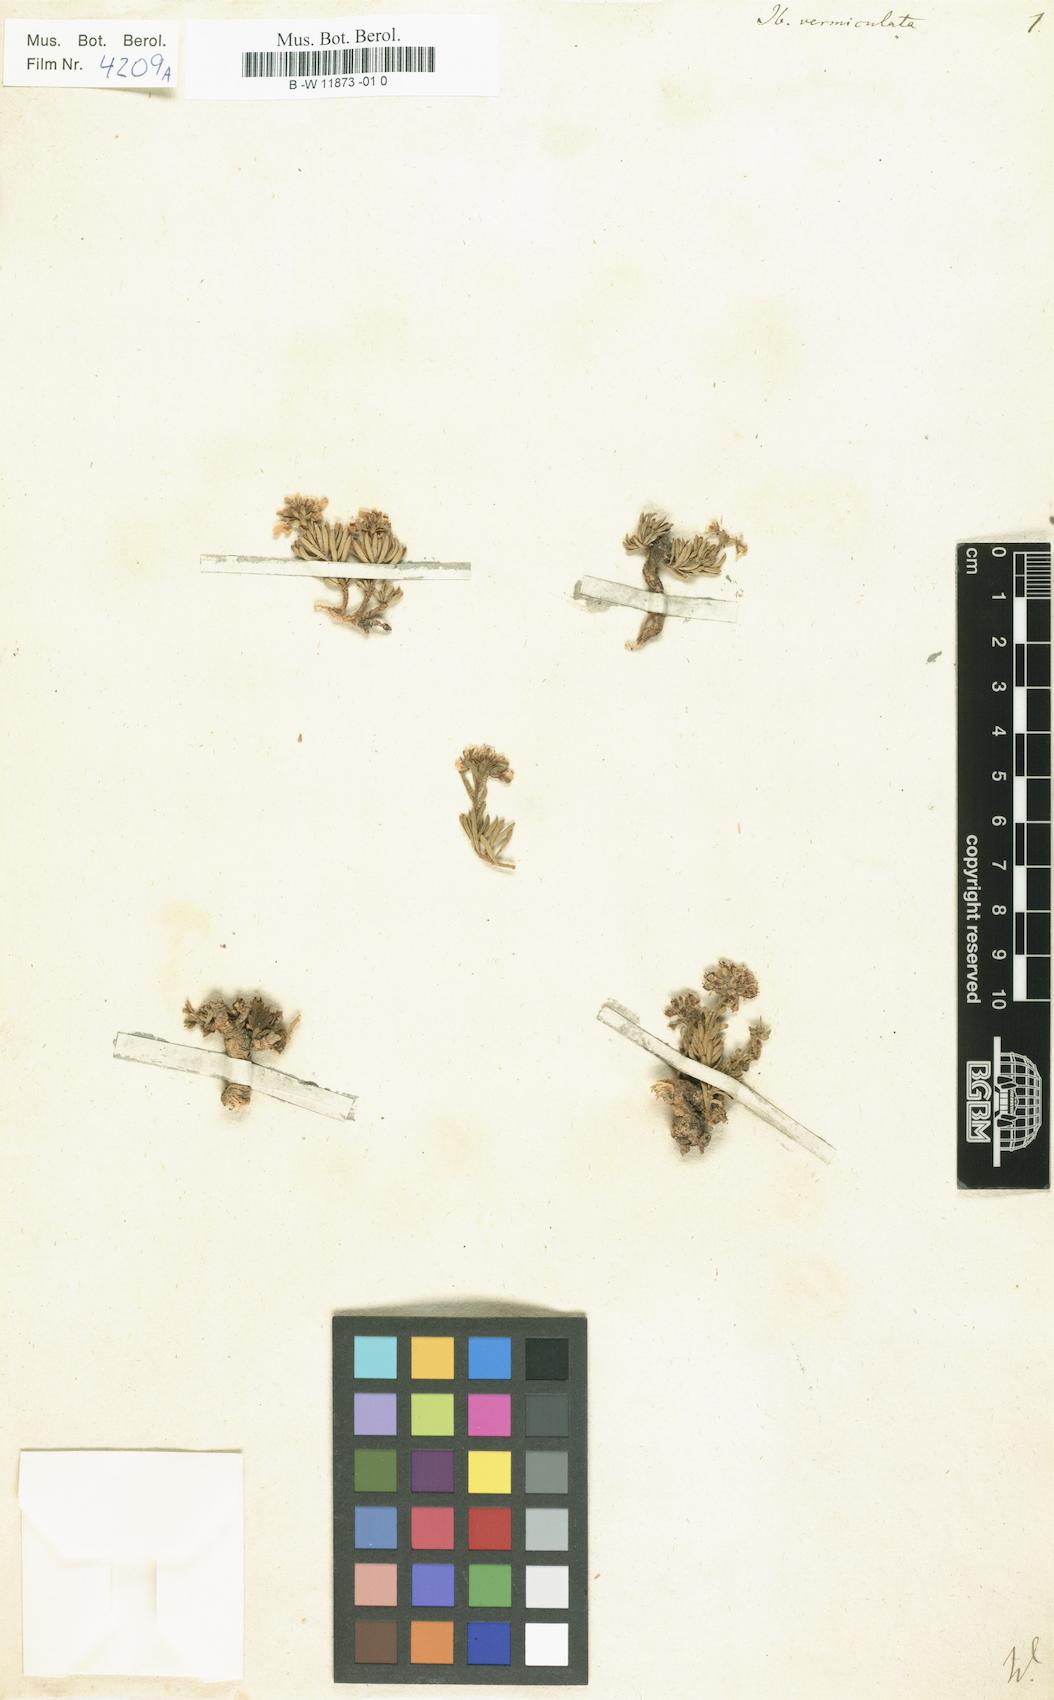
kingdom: Plantae
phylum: Tracheophyta
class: Magnoliopsida
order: Brassicales
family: Brassicaceae
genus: Iberis
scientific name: Iberis saxatilis
